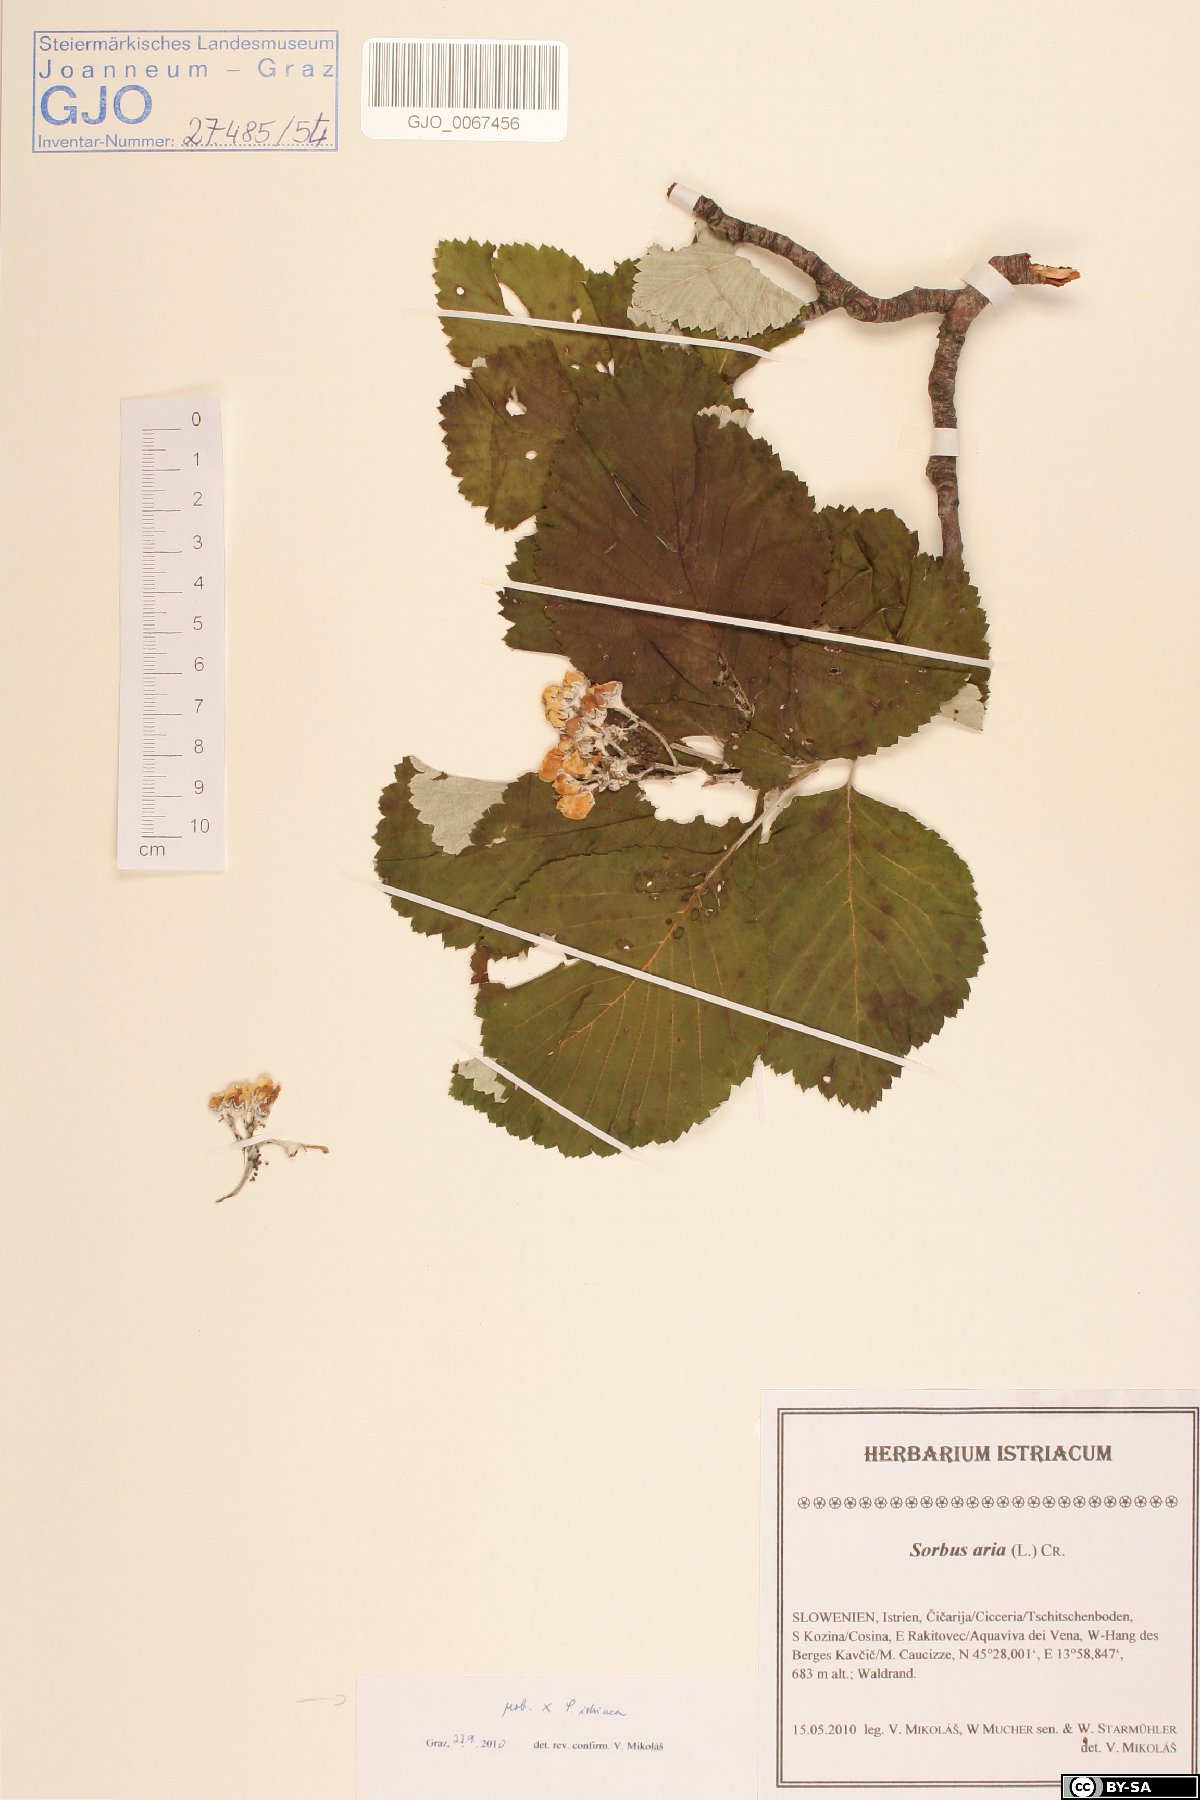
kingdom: Plantae
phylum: Tracheophyta
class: Magnoliopsida
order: Rosales
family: Rosaceae
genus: Aria
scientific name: Aria edulis
